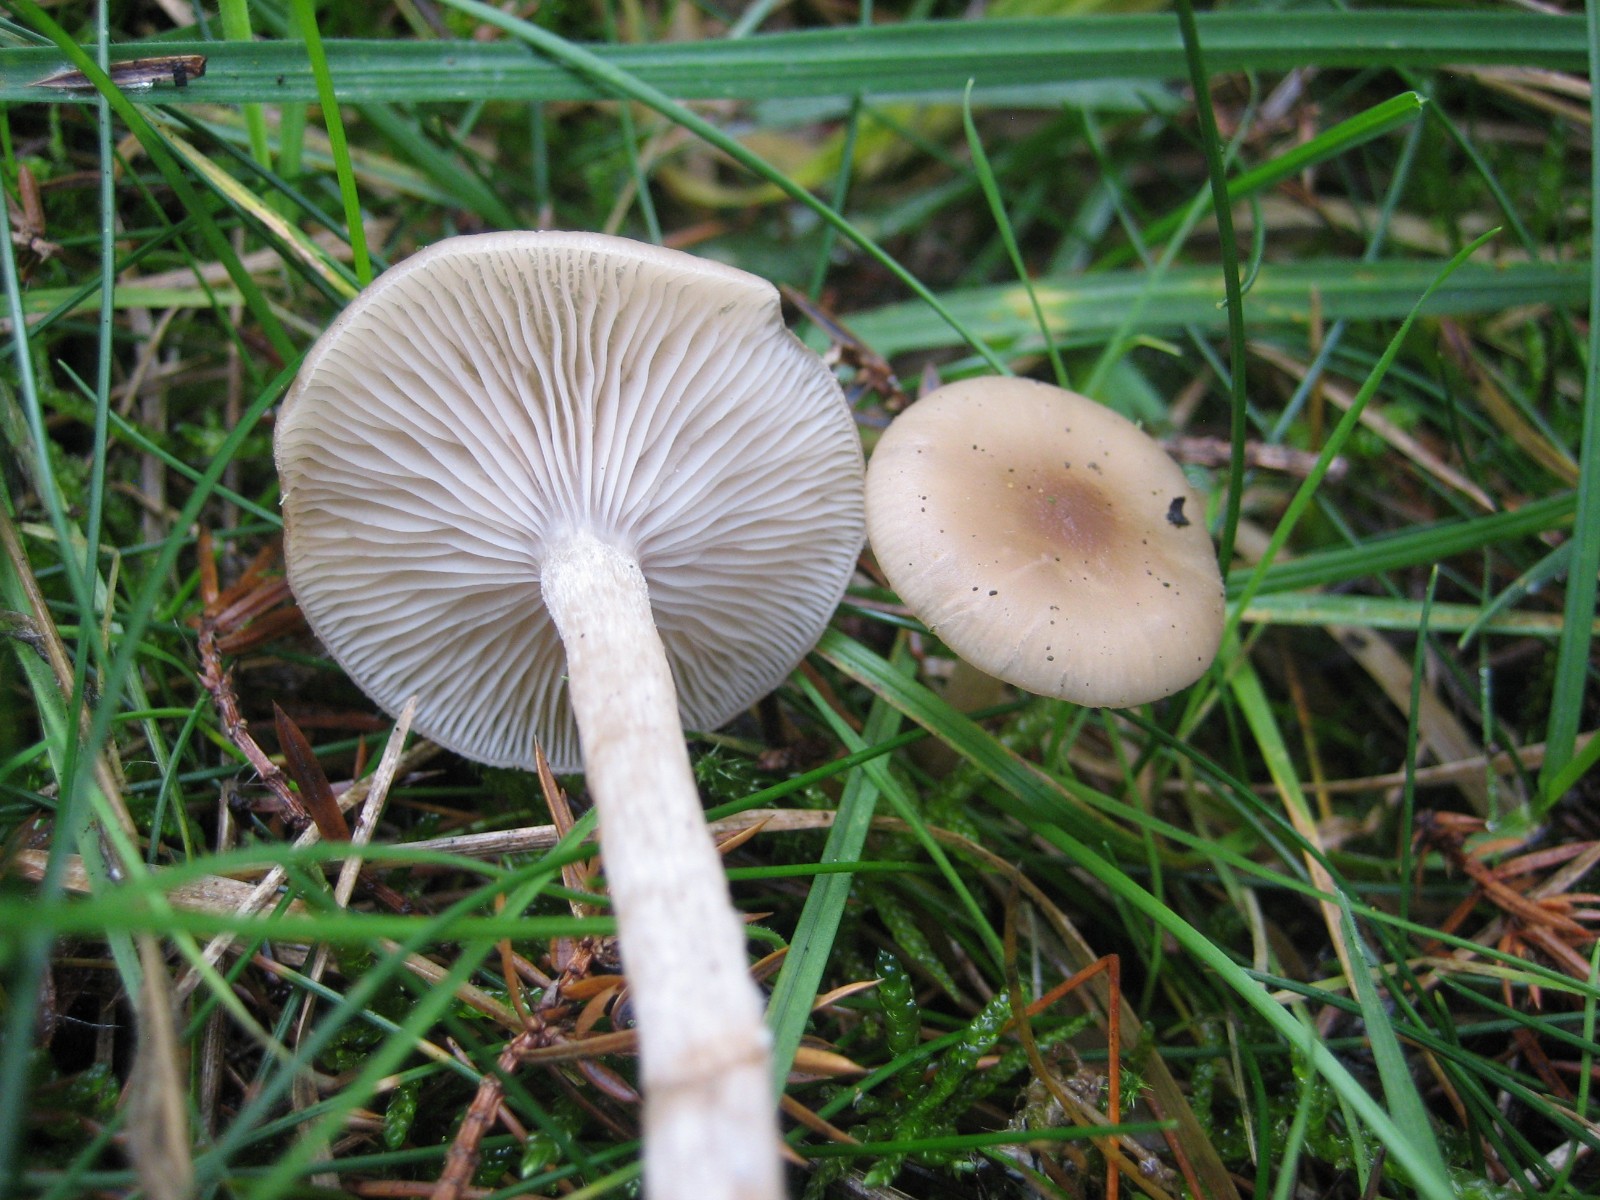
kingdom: Fungi
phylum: Basidiomycota
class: Agaricomycetes
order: Agaricales
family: Tricholomataceae
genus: Clitocybe
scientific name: Clitocybe fragrans
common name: vellugtende tragthat
